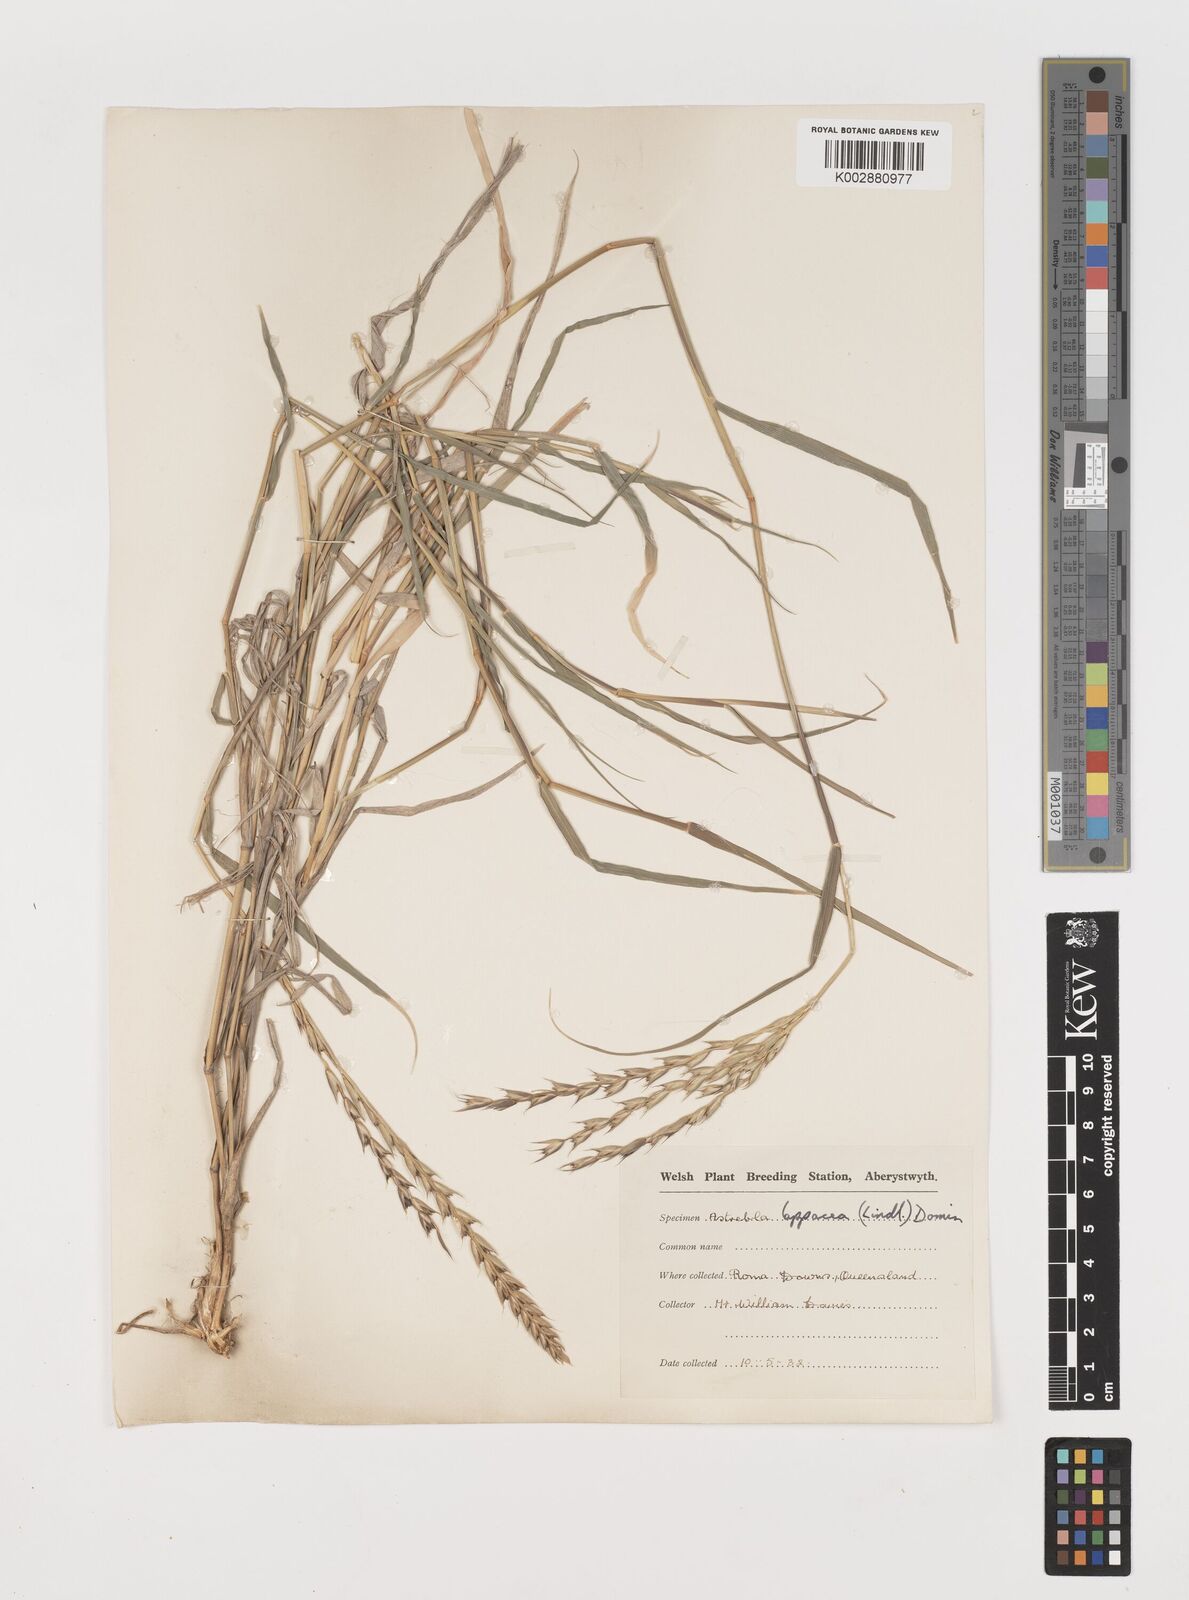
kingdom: Plantae
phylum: Tracheophyta
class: Liliopsida
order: Poales
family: Poaceae
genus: Astrebla
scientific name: Astrebla lappacea
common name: Curly mitchell grass
